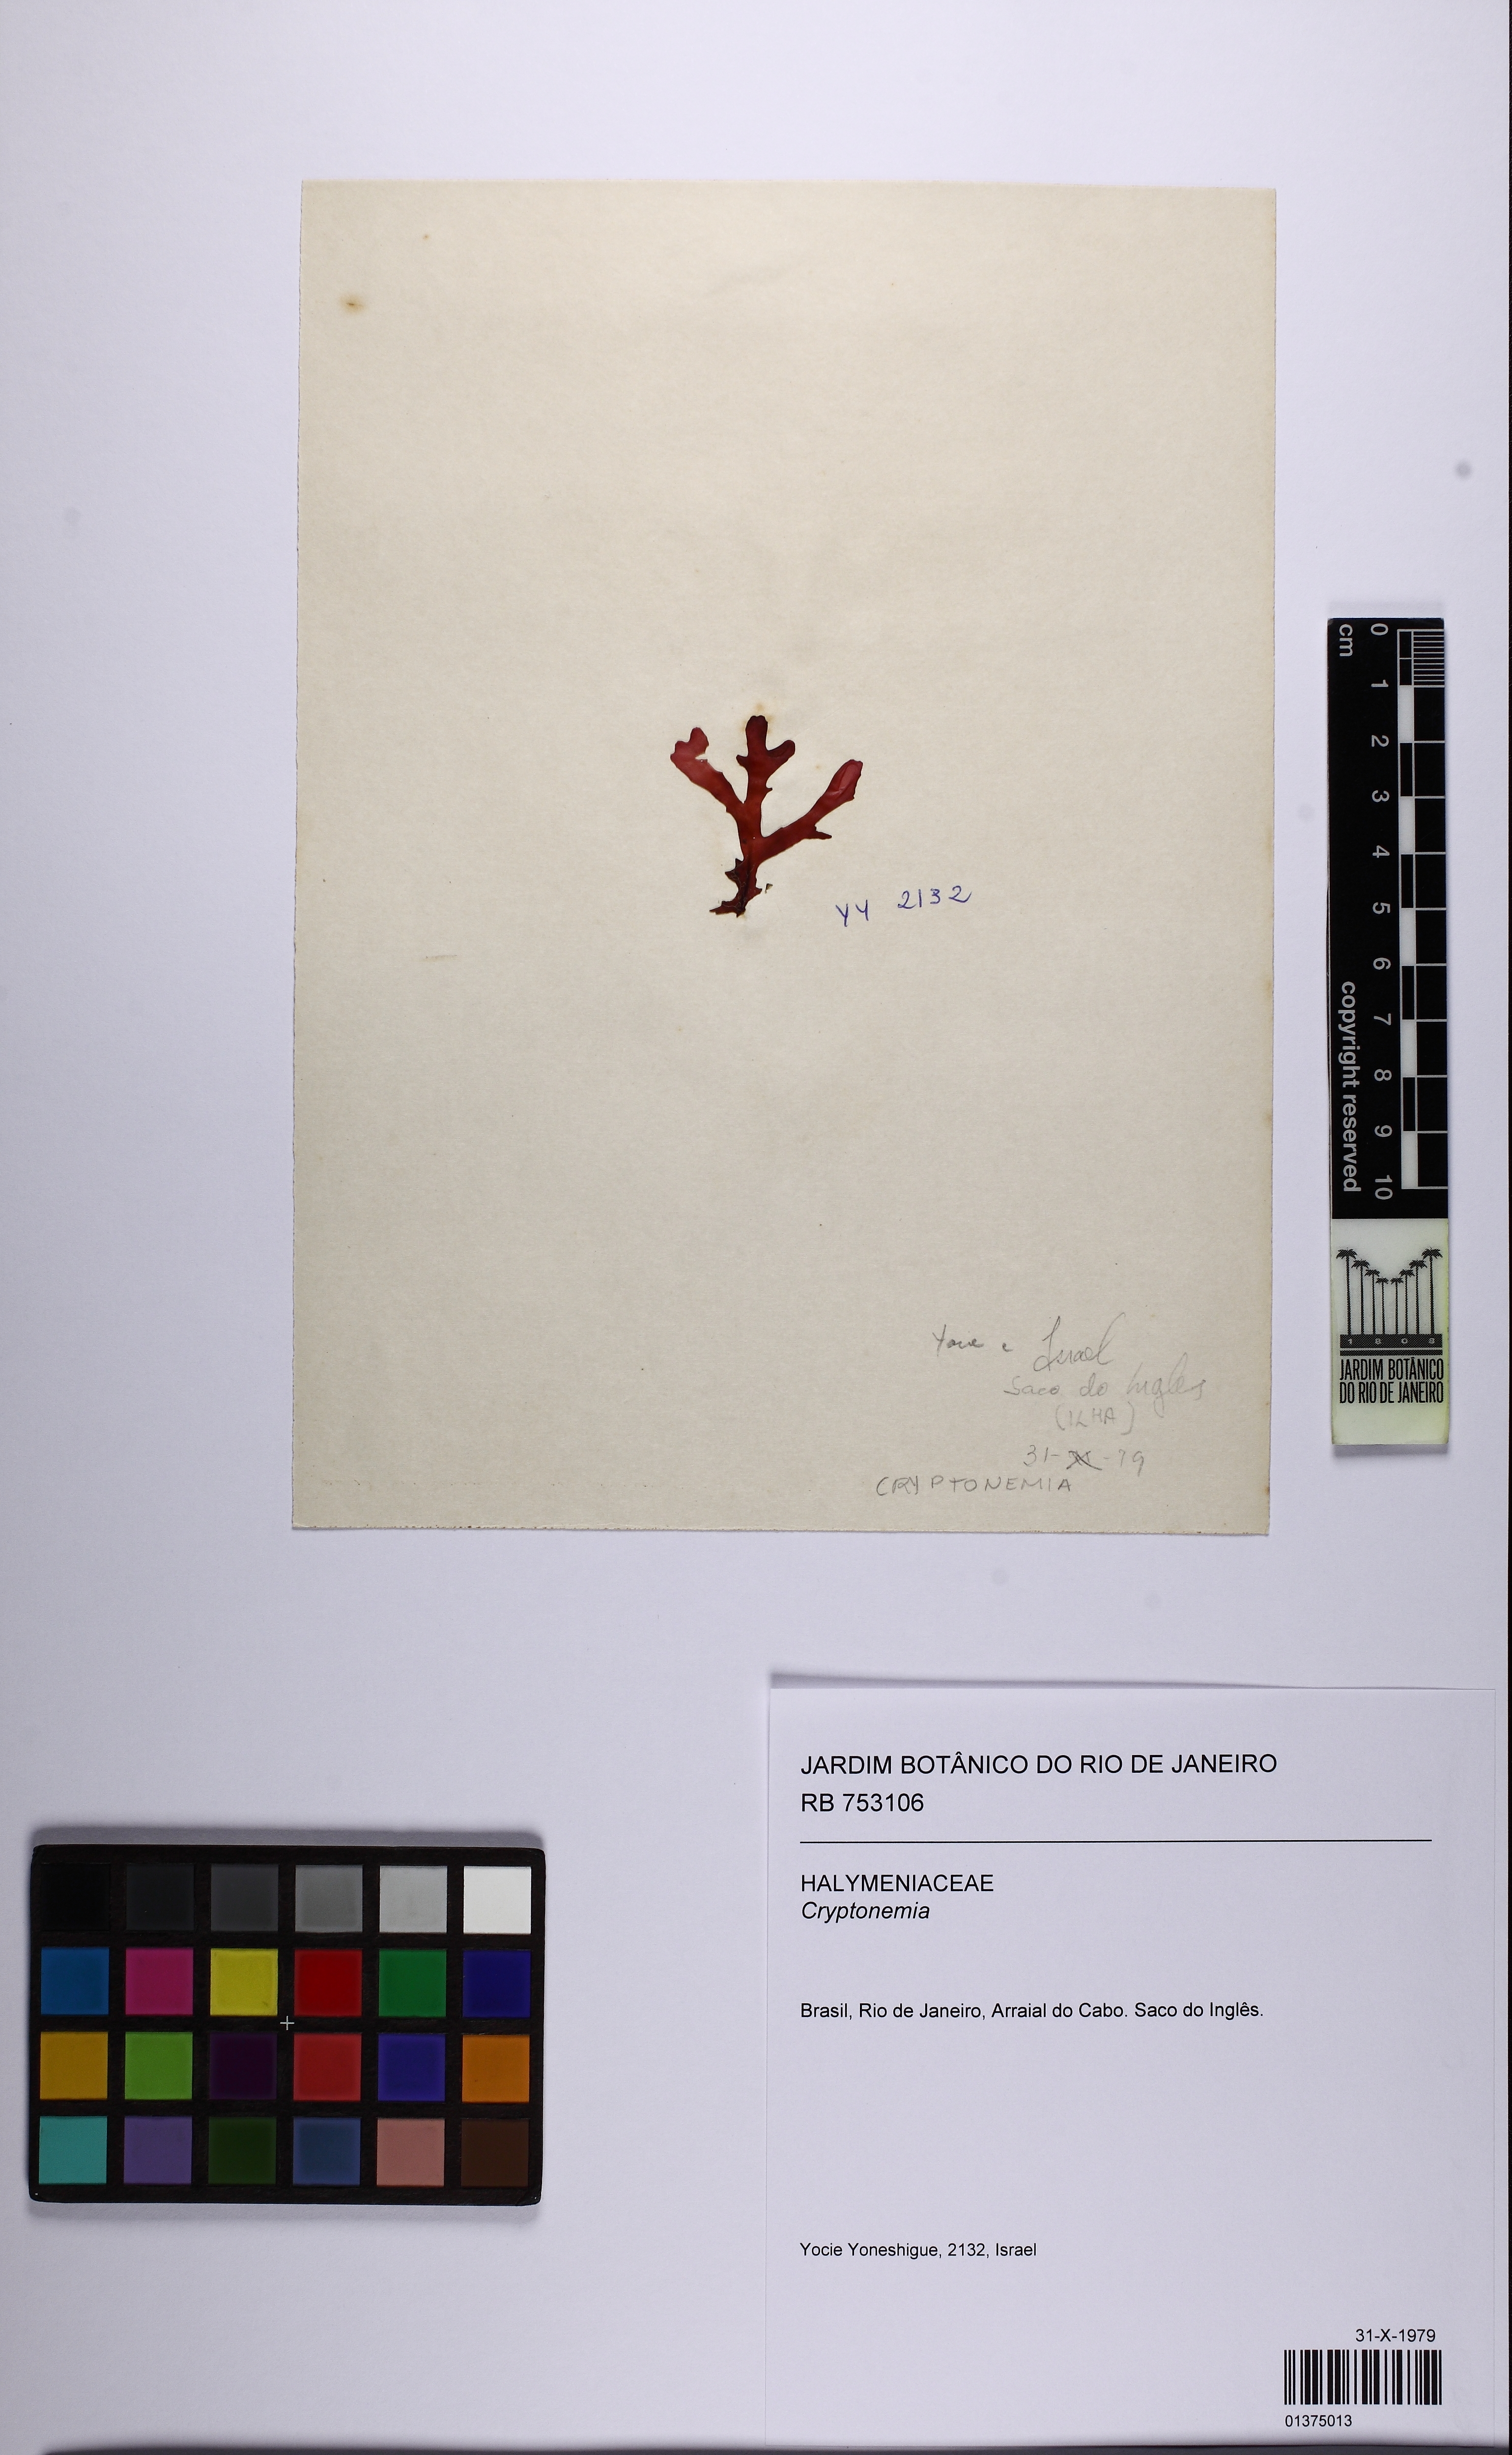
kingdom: Plantae
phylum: Rhodophyta
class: Florideophyceae
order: Halymeniales
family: Halymeniaceae
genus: Cryptonemia
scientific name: Cryptonemia
